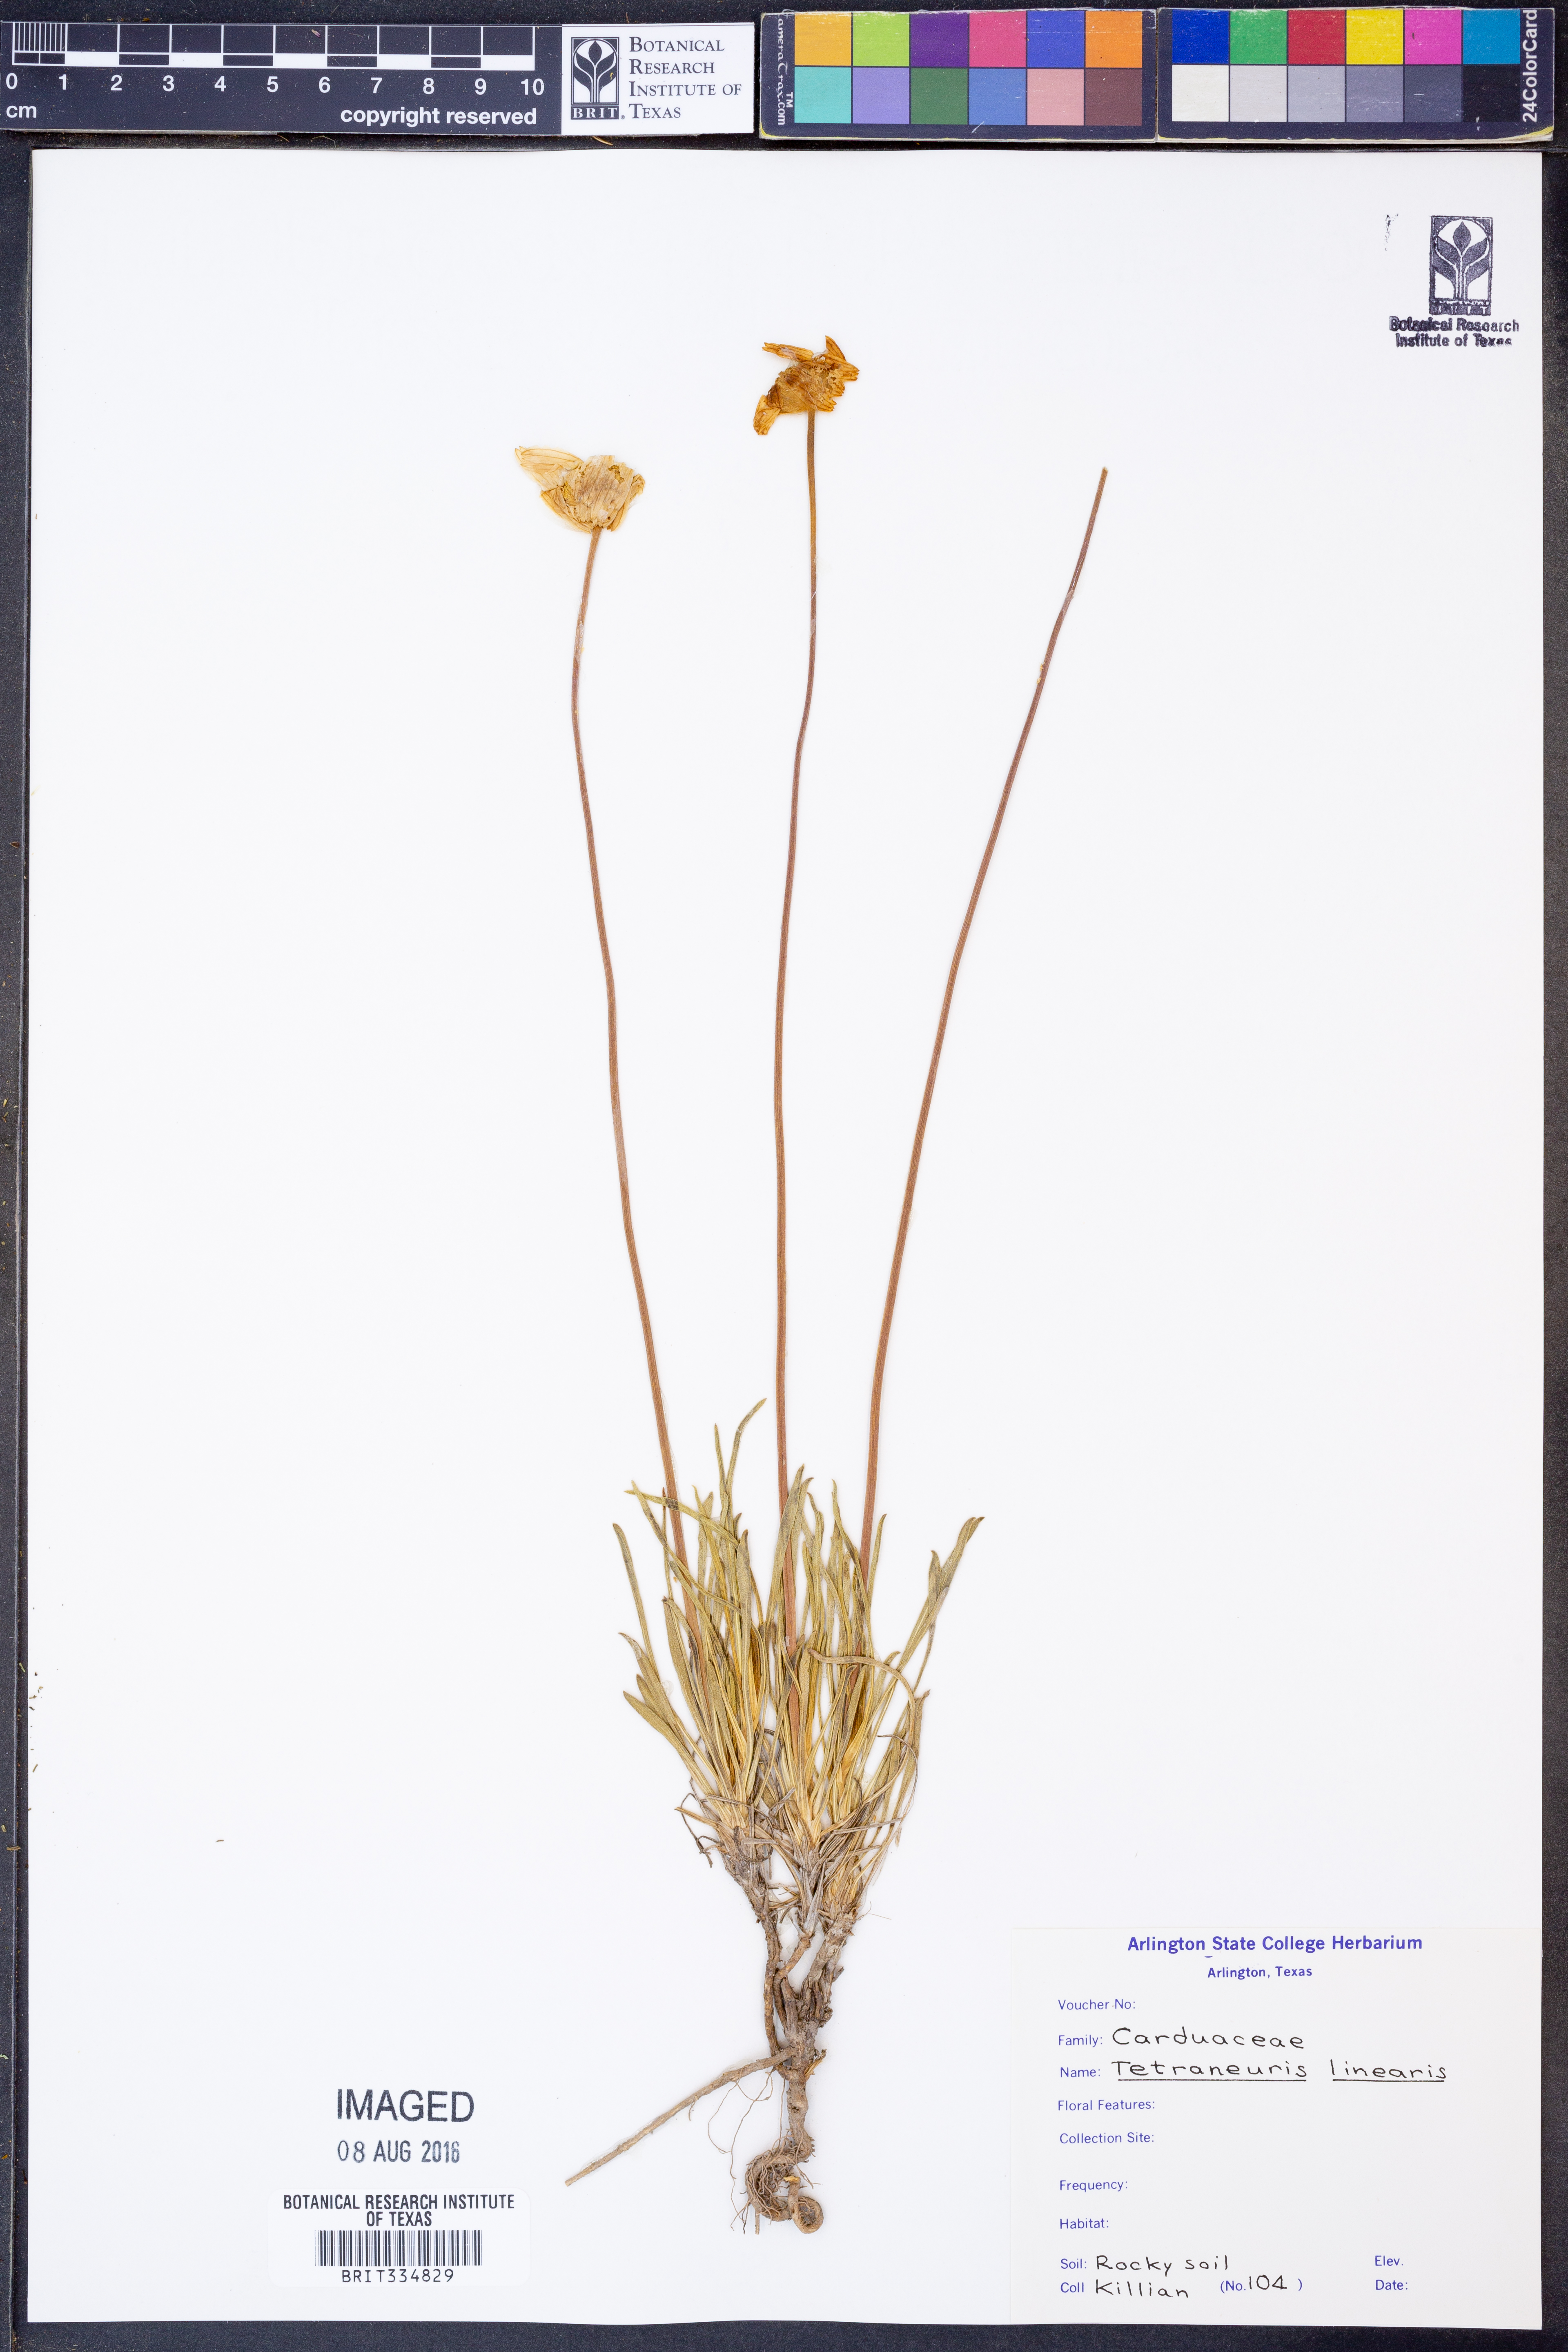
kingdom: Plantae
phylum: Tracheophyta
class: Magnoliopsida
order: Asterales
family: Asteraceae
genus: Tetraneuris
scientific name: Tetraneuris scaposa
